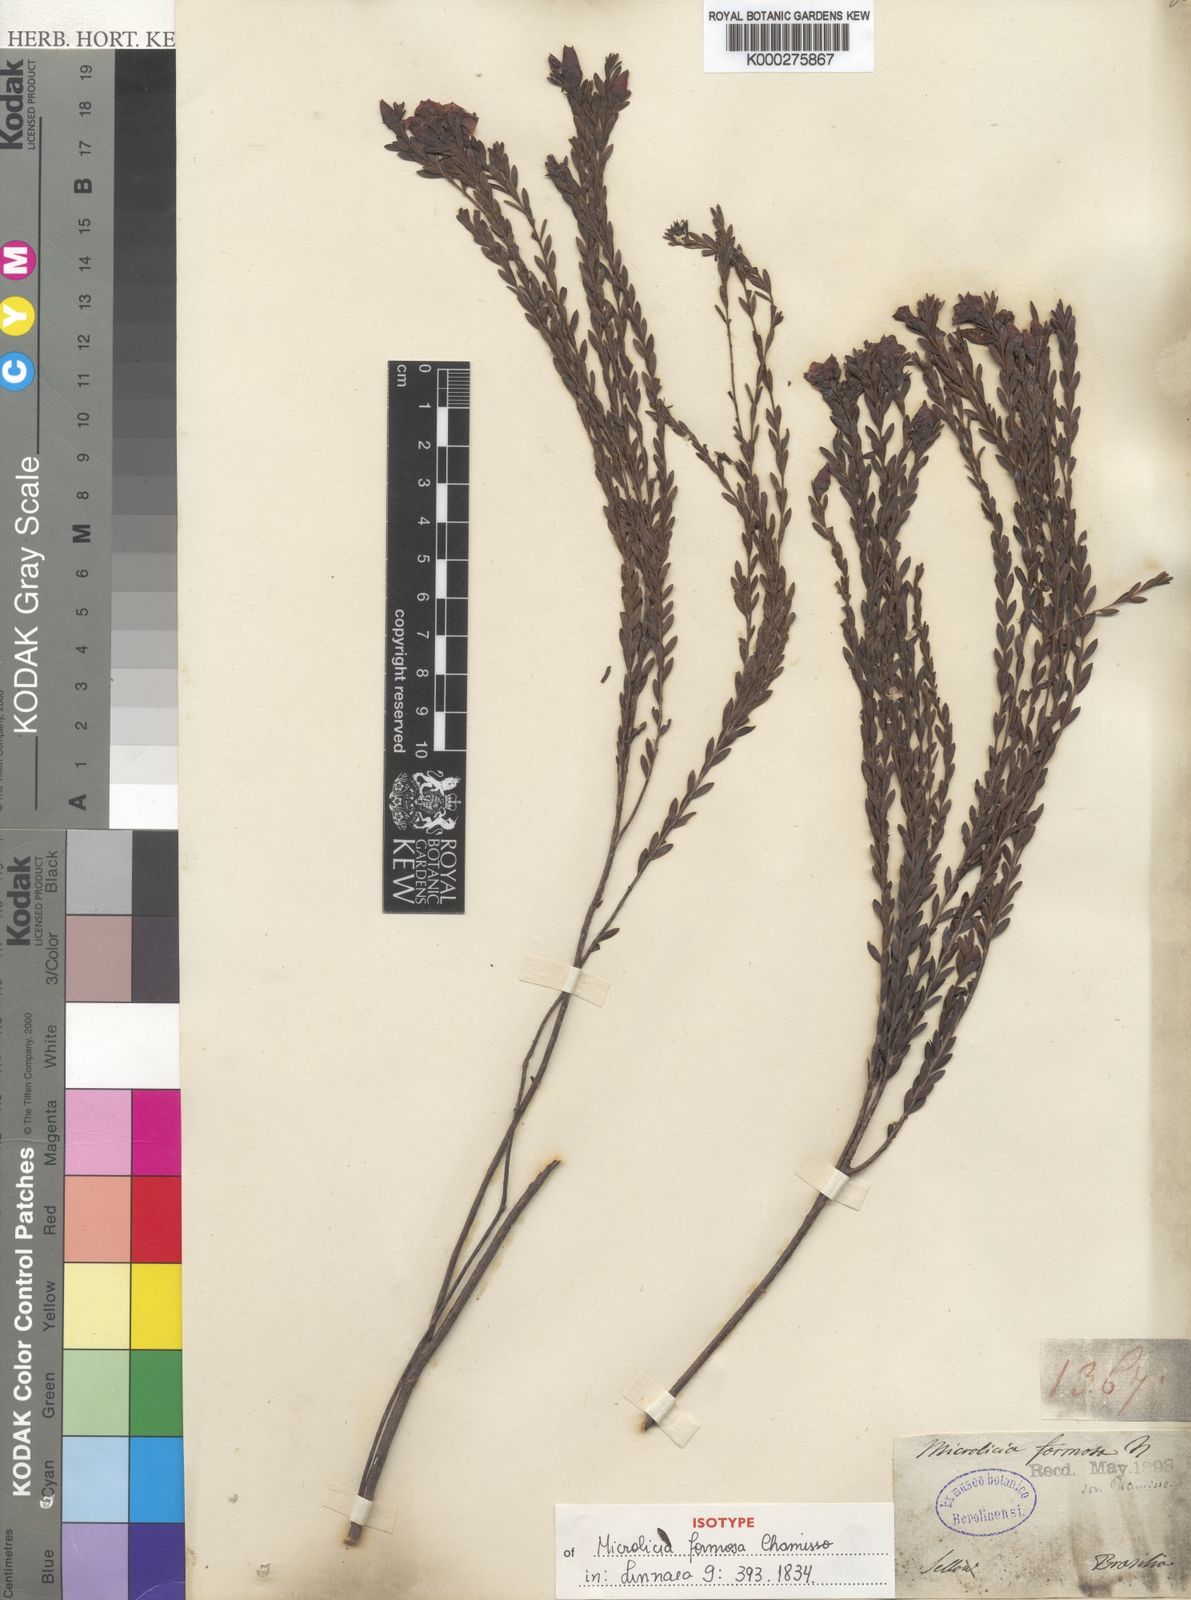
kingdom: Plantae
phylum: Tracheophyta
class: Magnoliopsida
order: Myrtales
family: Melastomataceae
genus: Microlicia
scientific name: Microlicia formosa
